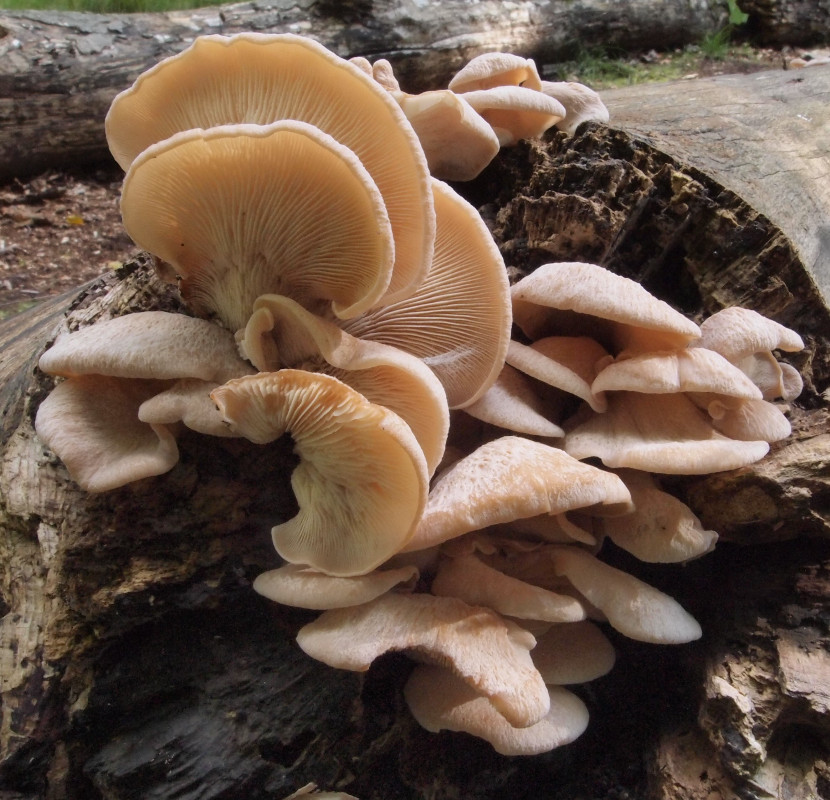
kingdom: Fungi
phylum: Basidiomycota
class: Agaricomycetes
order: Russulales
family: Auriscalpiaceae
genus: Lentinellus
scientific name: Lentinellus ursinus
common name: børstehåret savbladhat
